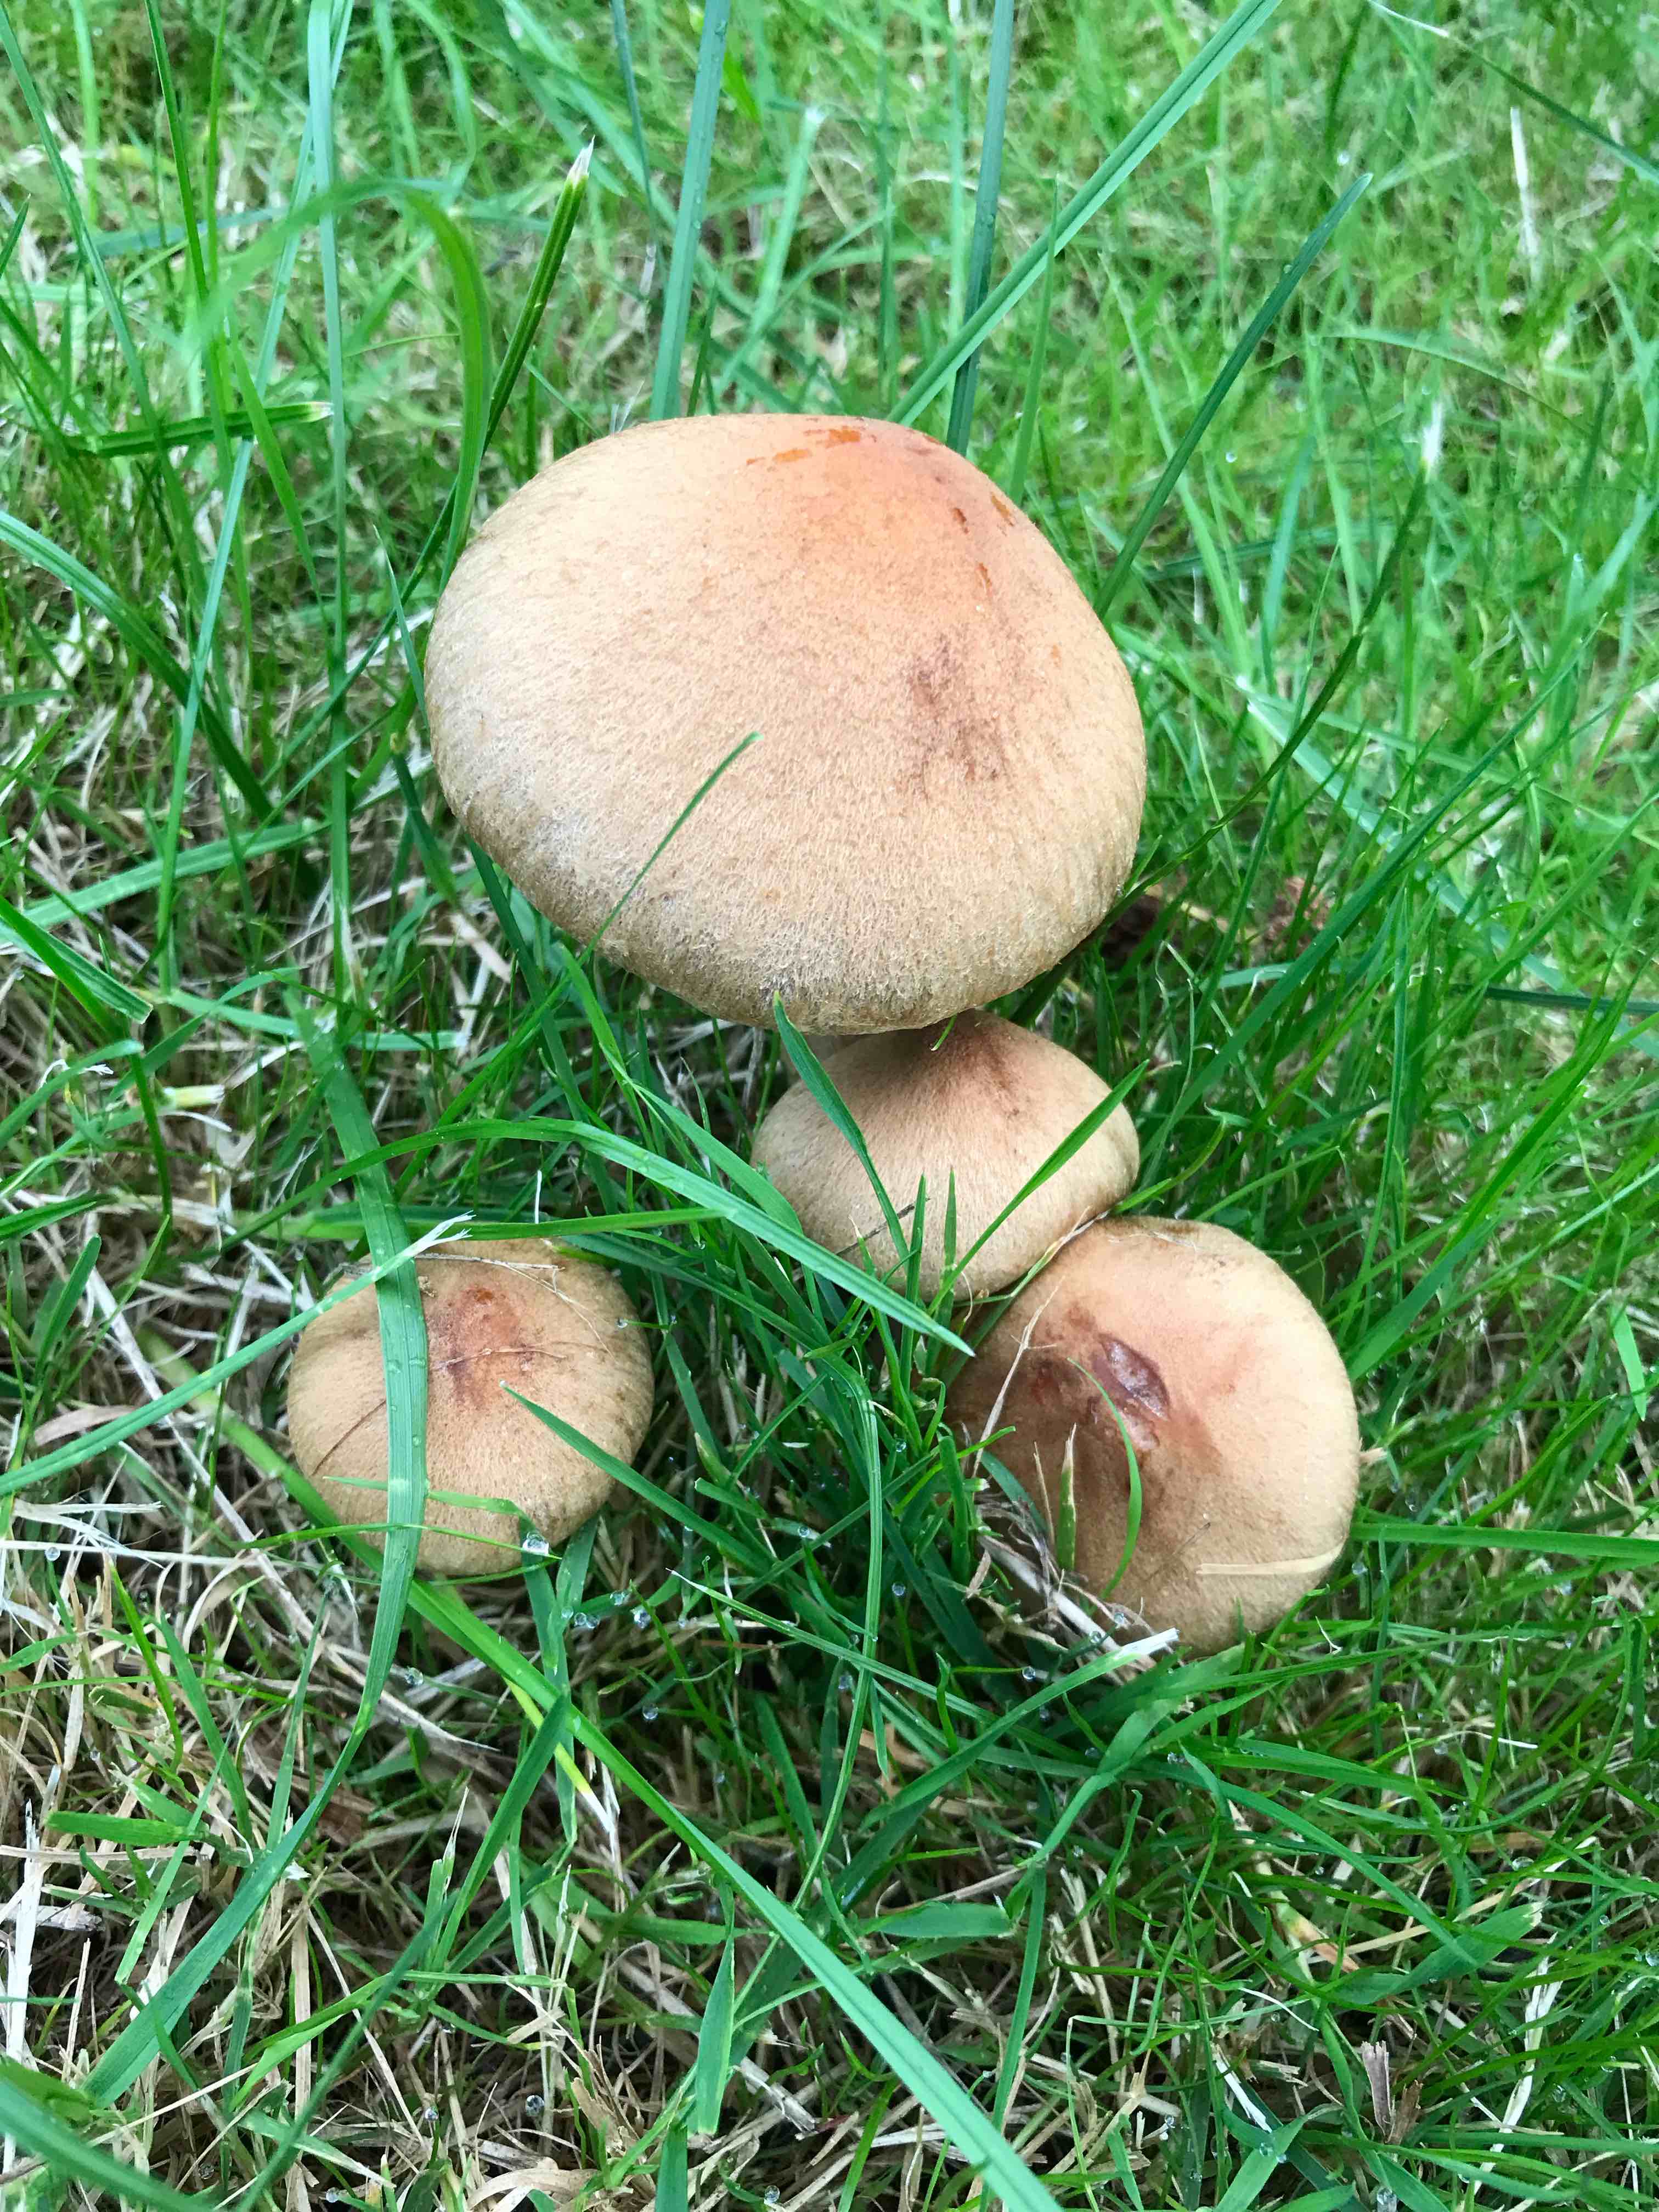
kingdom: Fungi
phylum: Basidiomycota
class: Agaricomycetes
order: Agaricales
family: Psathyrellaceae
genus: Lacrymaria
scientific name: Lacrymaria lacrymabunda
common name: grædende mørkhat
